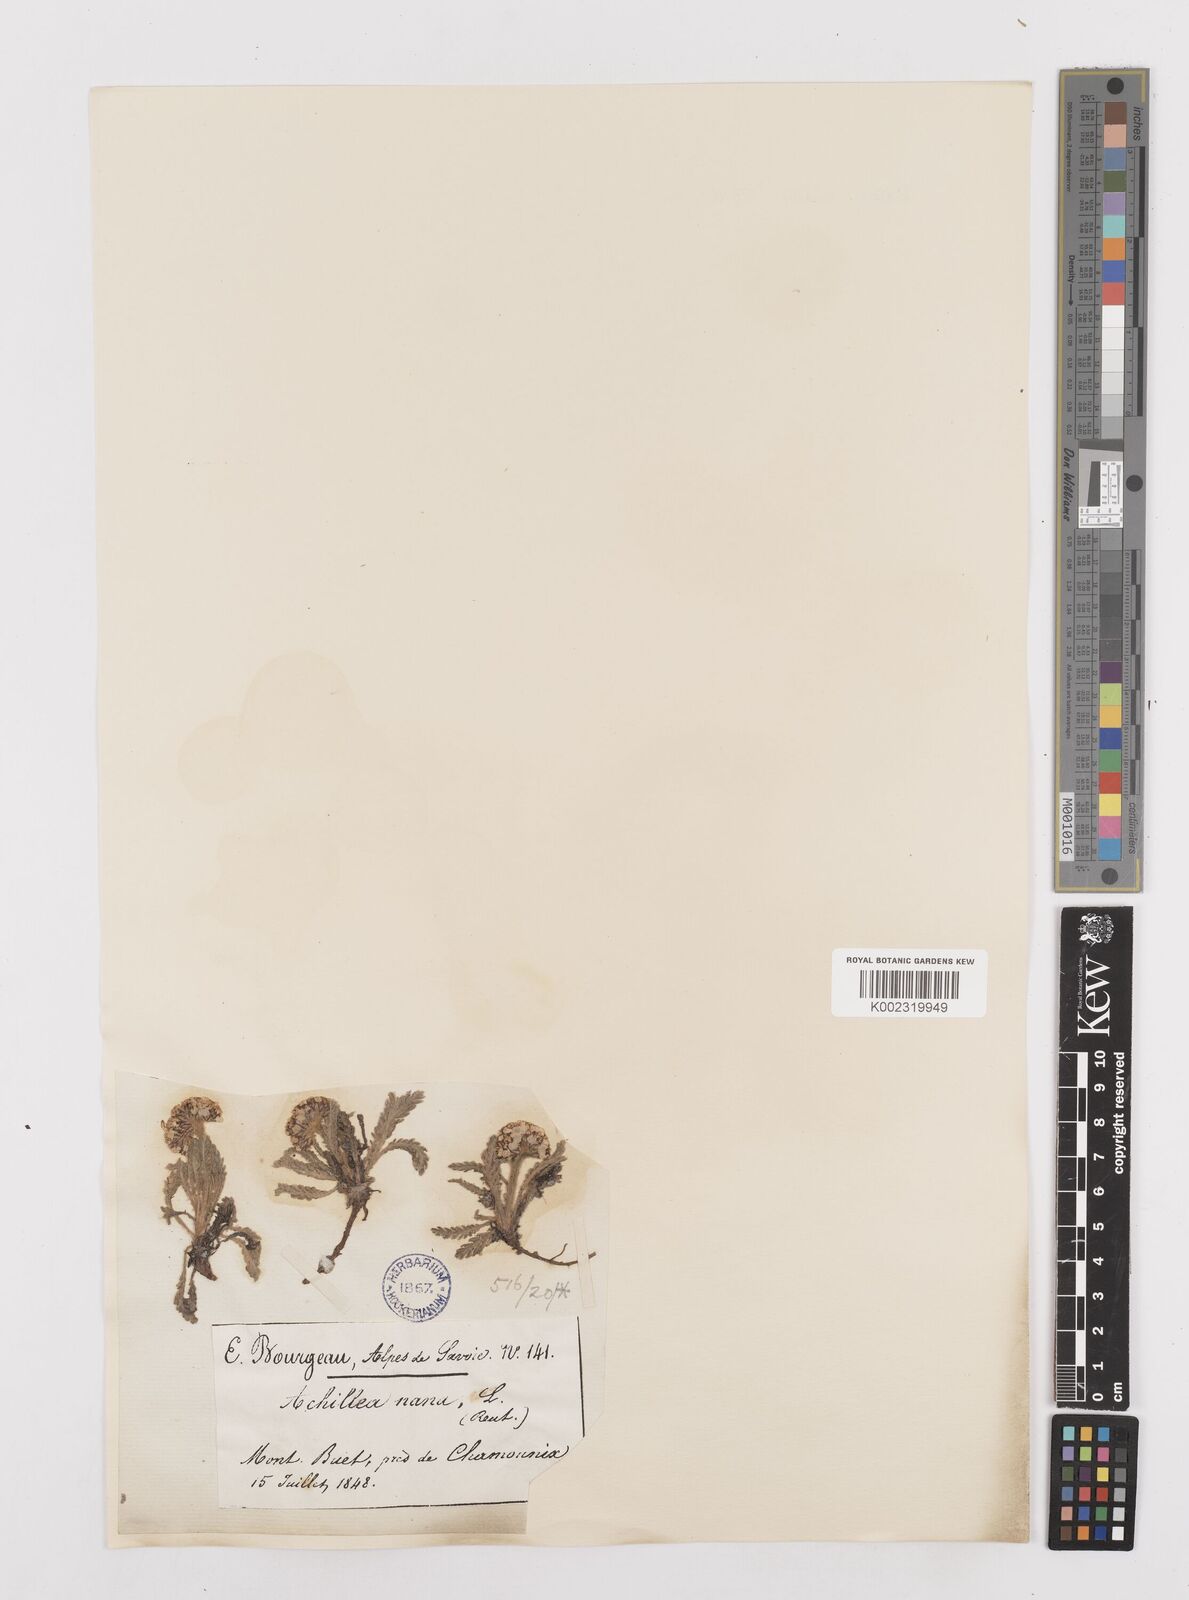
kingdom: Plantae
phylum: Tracheophyta
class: Magnoliopsida
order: Asterales
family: Asteraceae
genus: Achillea
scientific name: Achillea
